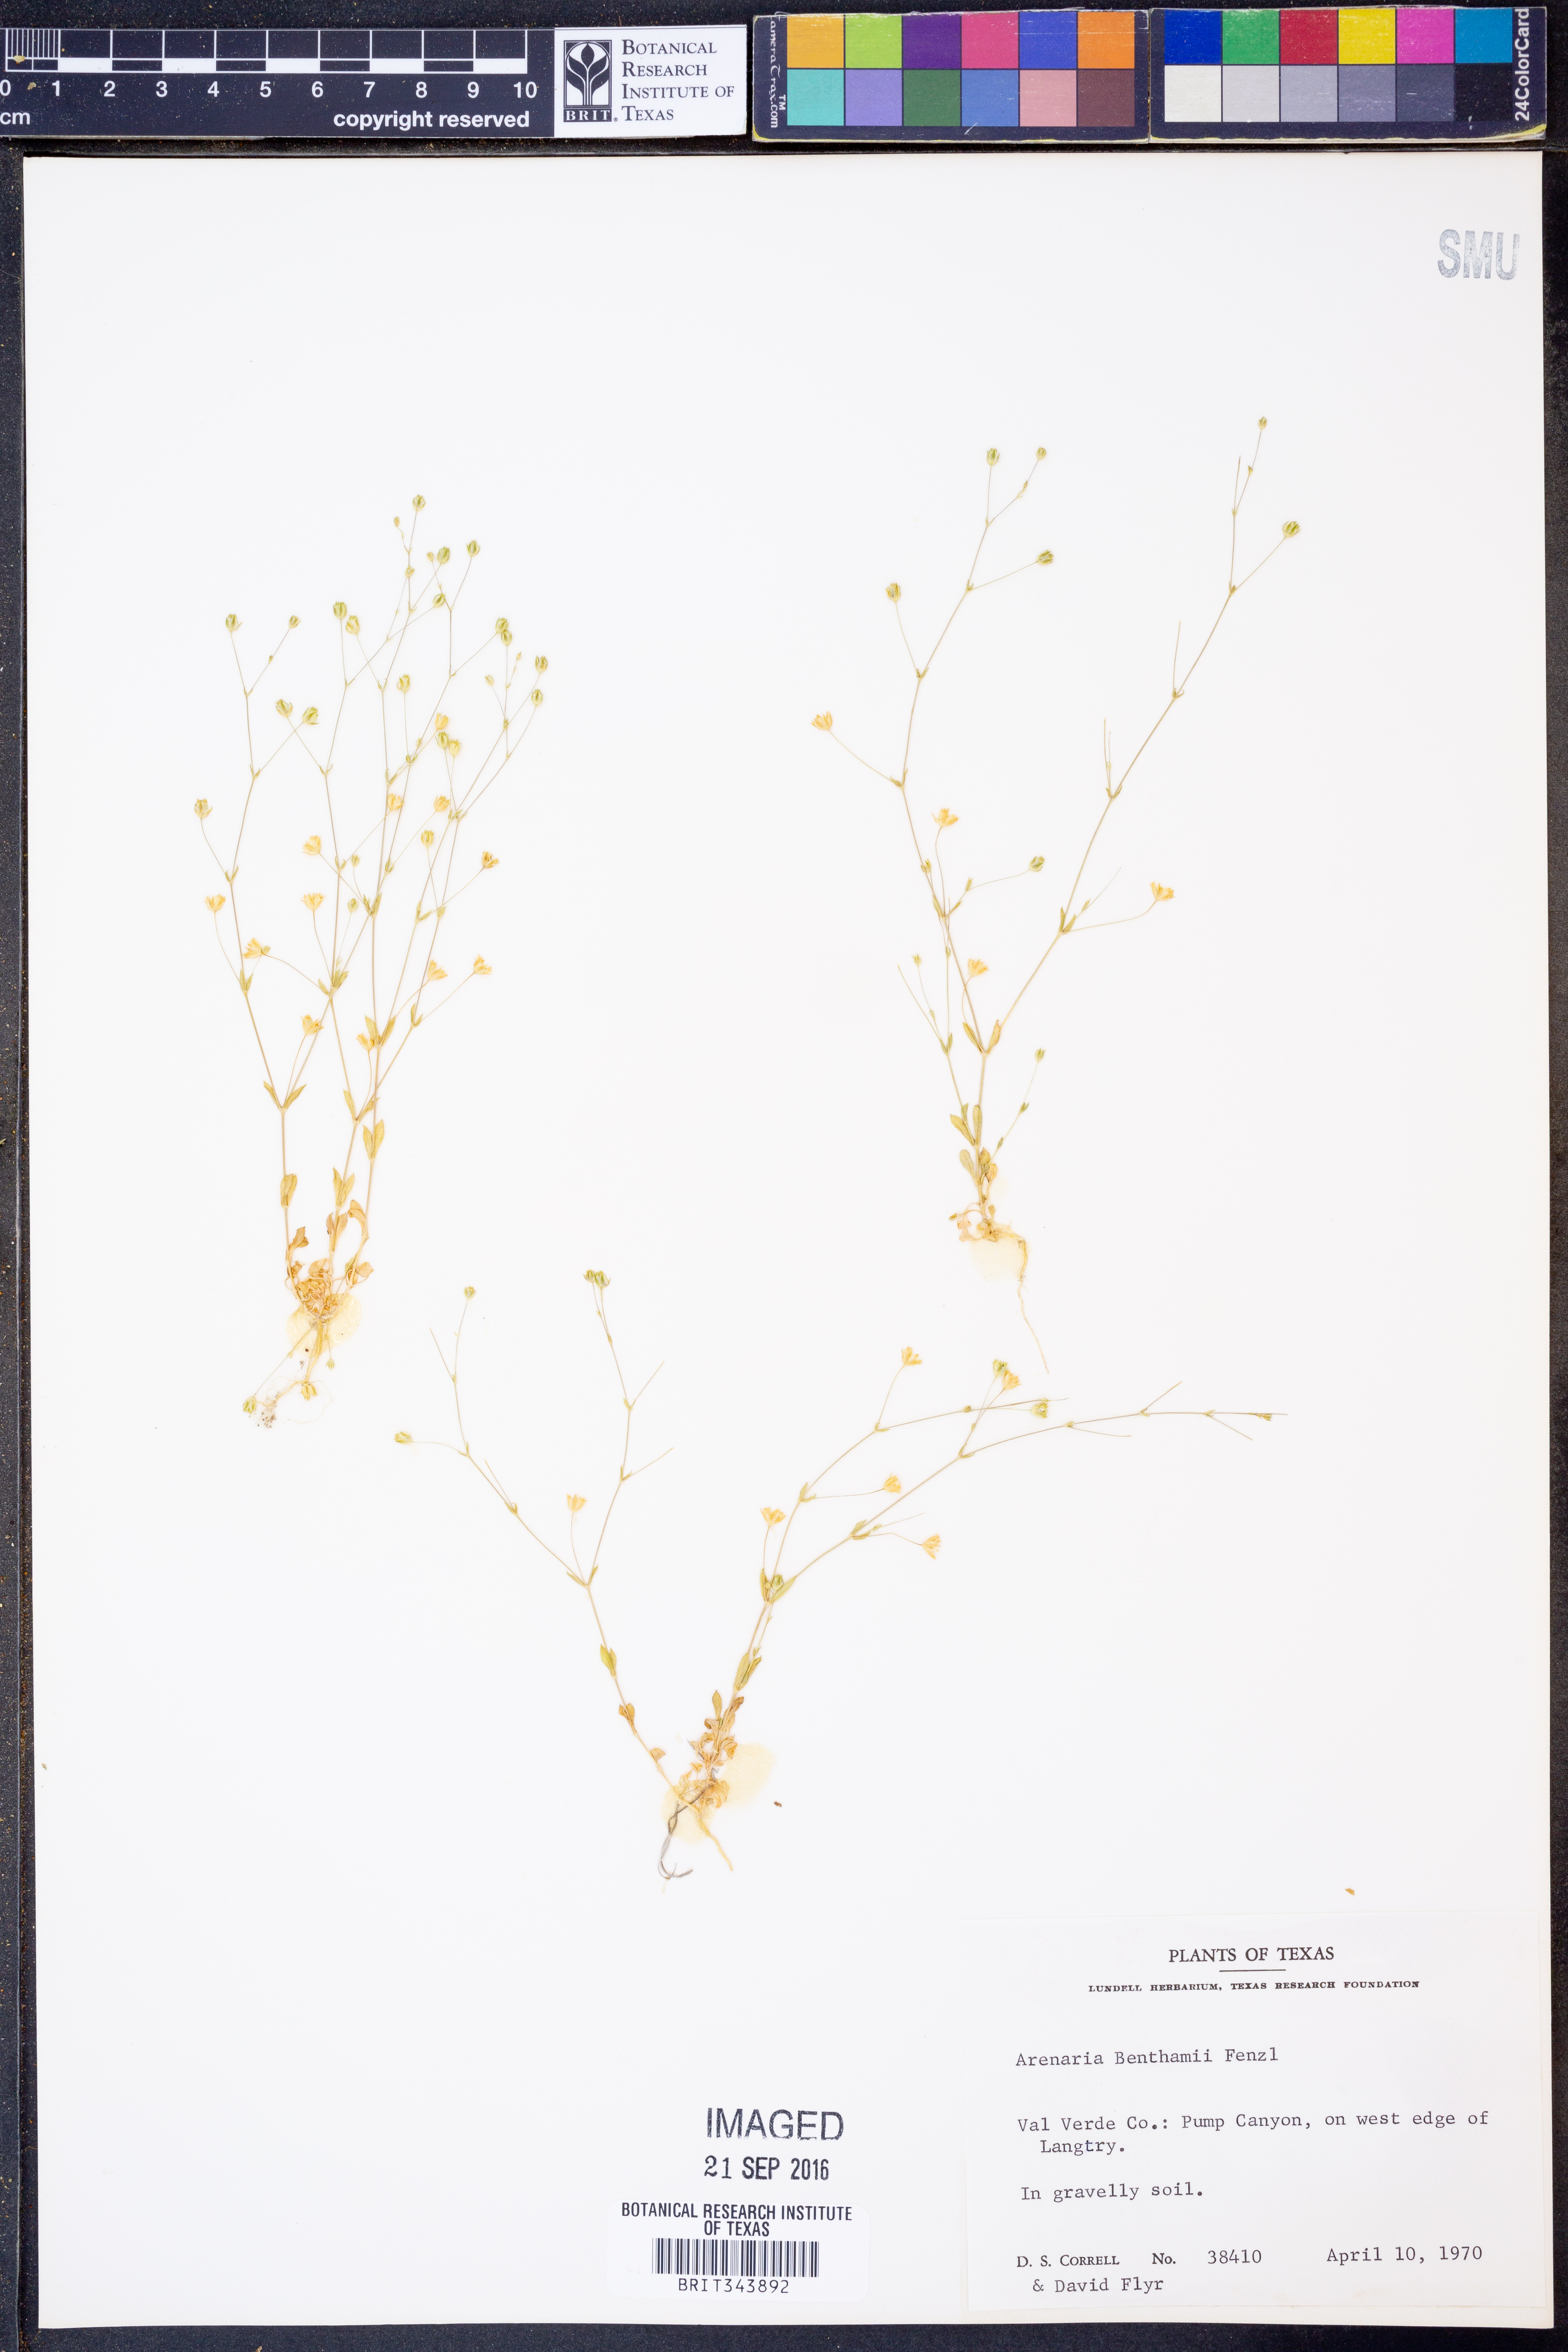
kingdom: Plantae
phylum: Tracheophyta
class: Magnoliopsida
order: Caryophyllales
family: Caryophyllaceae
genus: Arenaria
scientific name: Arenaria benthamii
